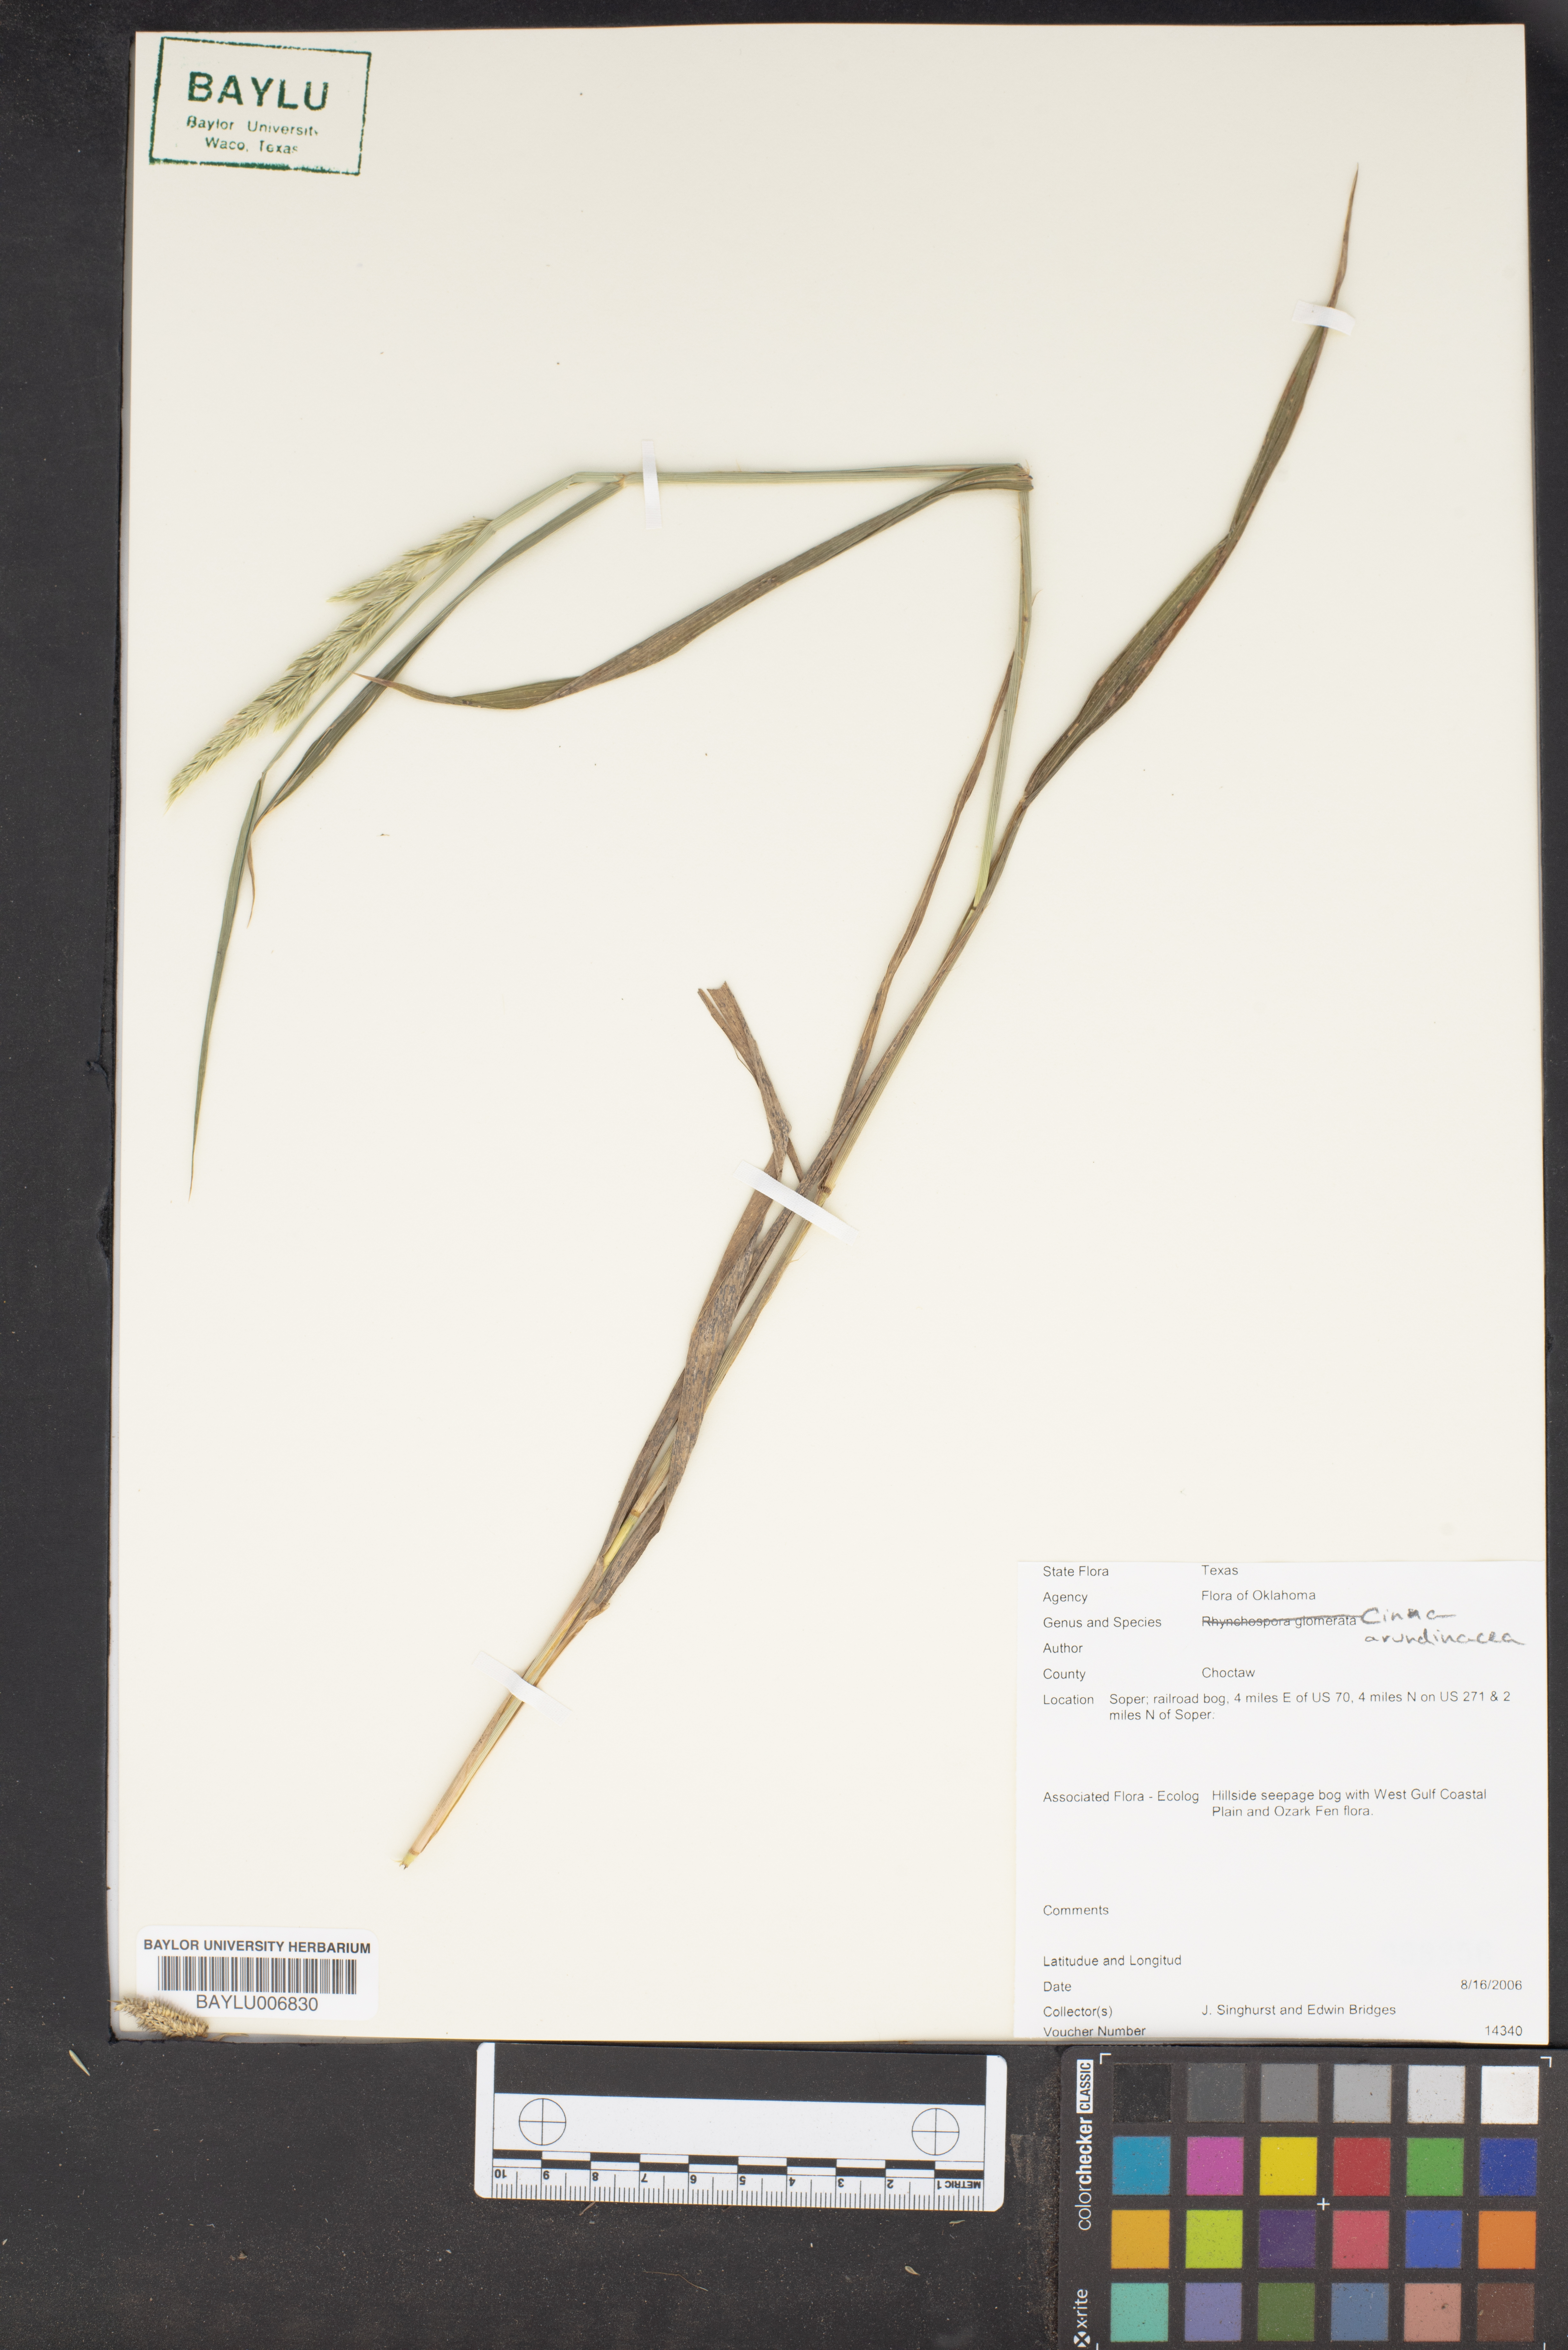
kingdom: Plantae
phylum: Tracheophyta
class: Liliopsida
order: Poales
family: Poaceae
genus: Cinna
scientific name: Cinna arundinacea
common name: Stout woodreed
